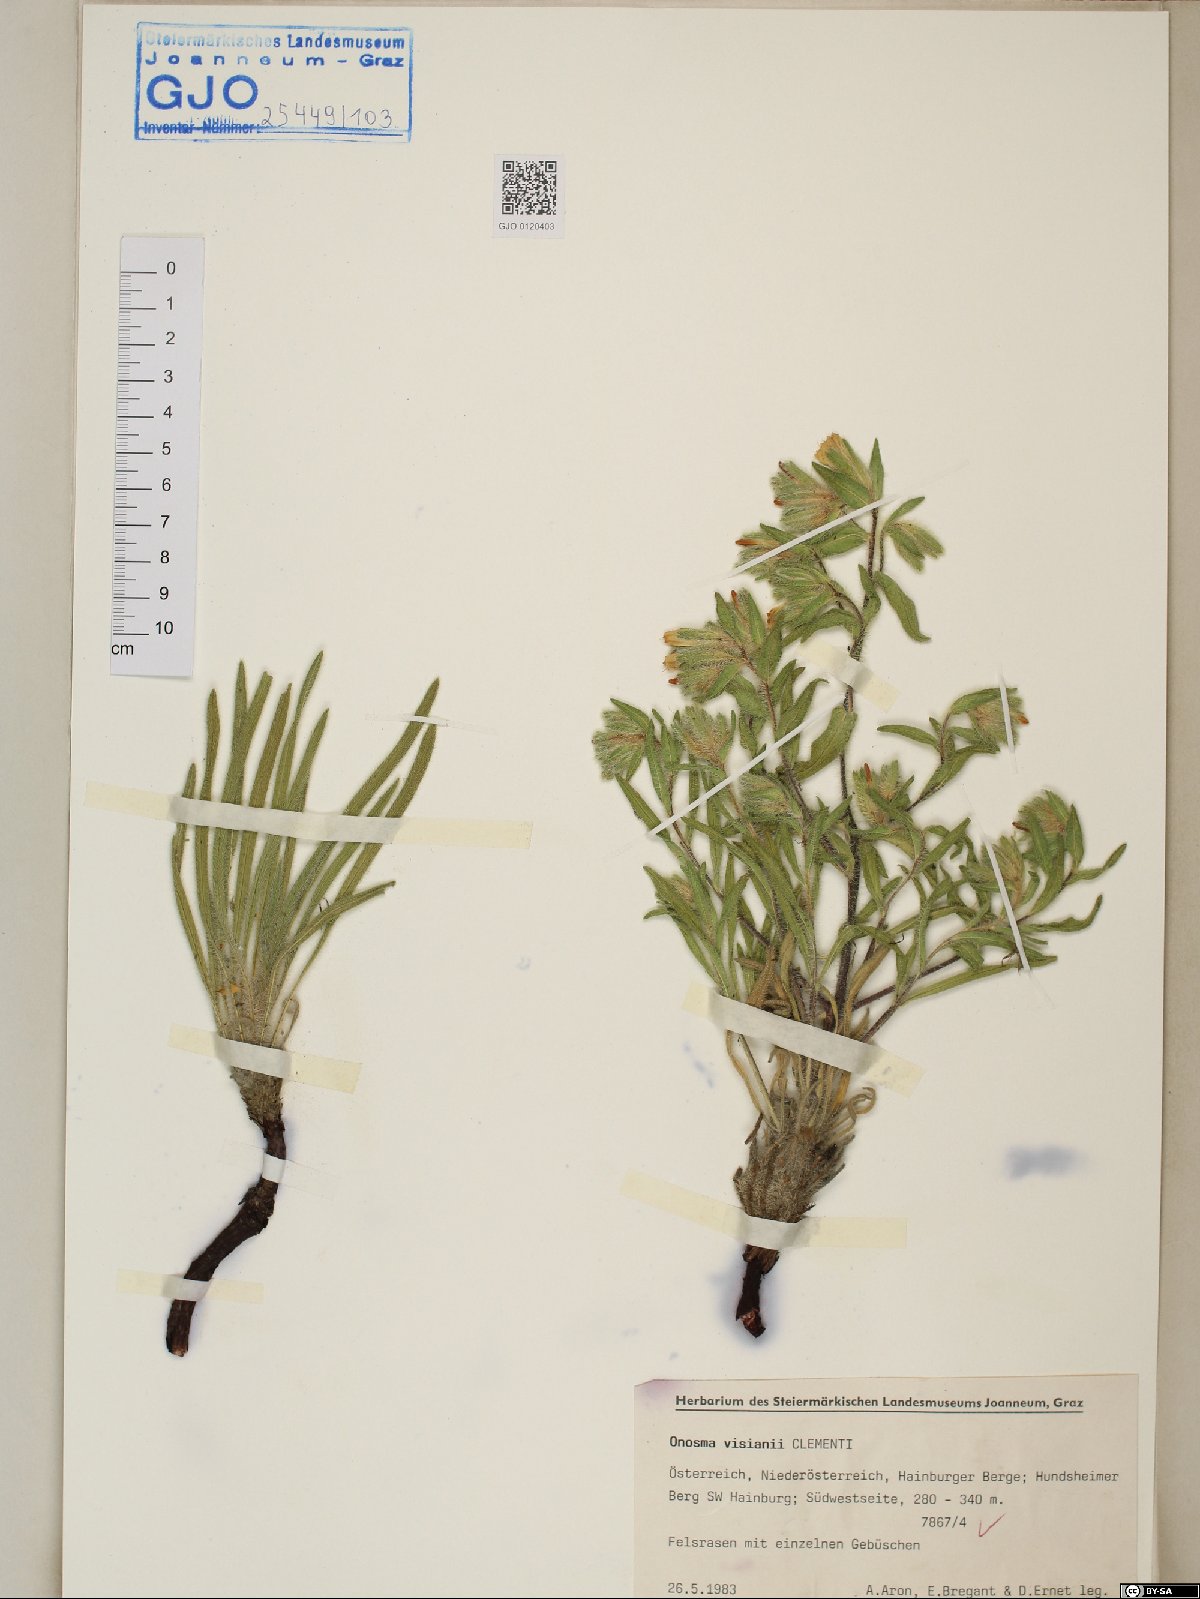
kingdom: Plantae
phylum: Tracheophyta
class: Magnoliopsida
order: Boraginales
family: Boraginaceae
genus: Onosma
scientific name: Onosma visianii
